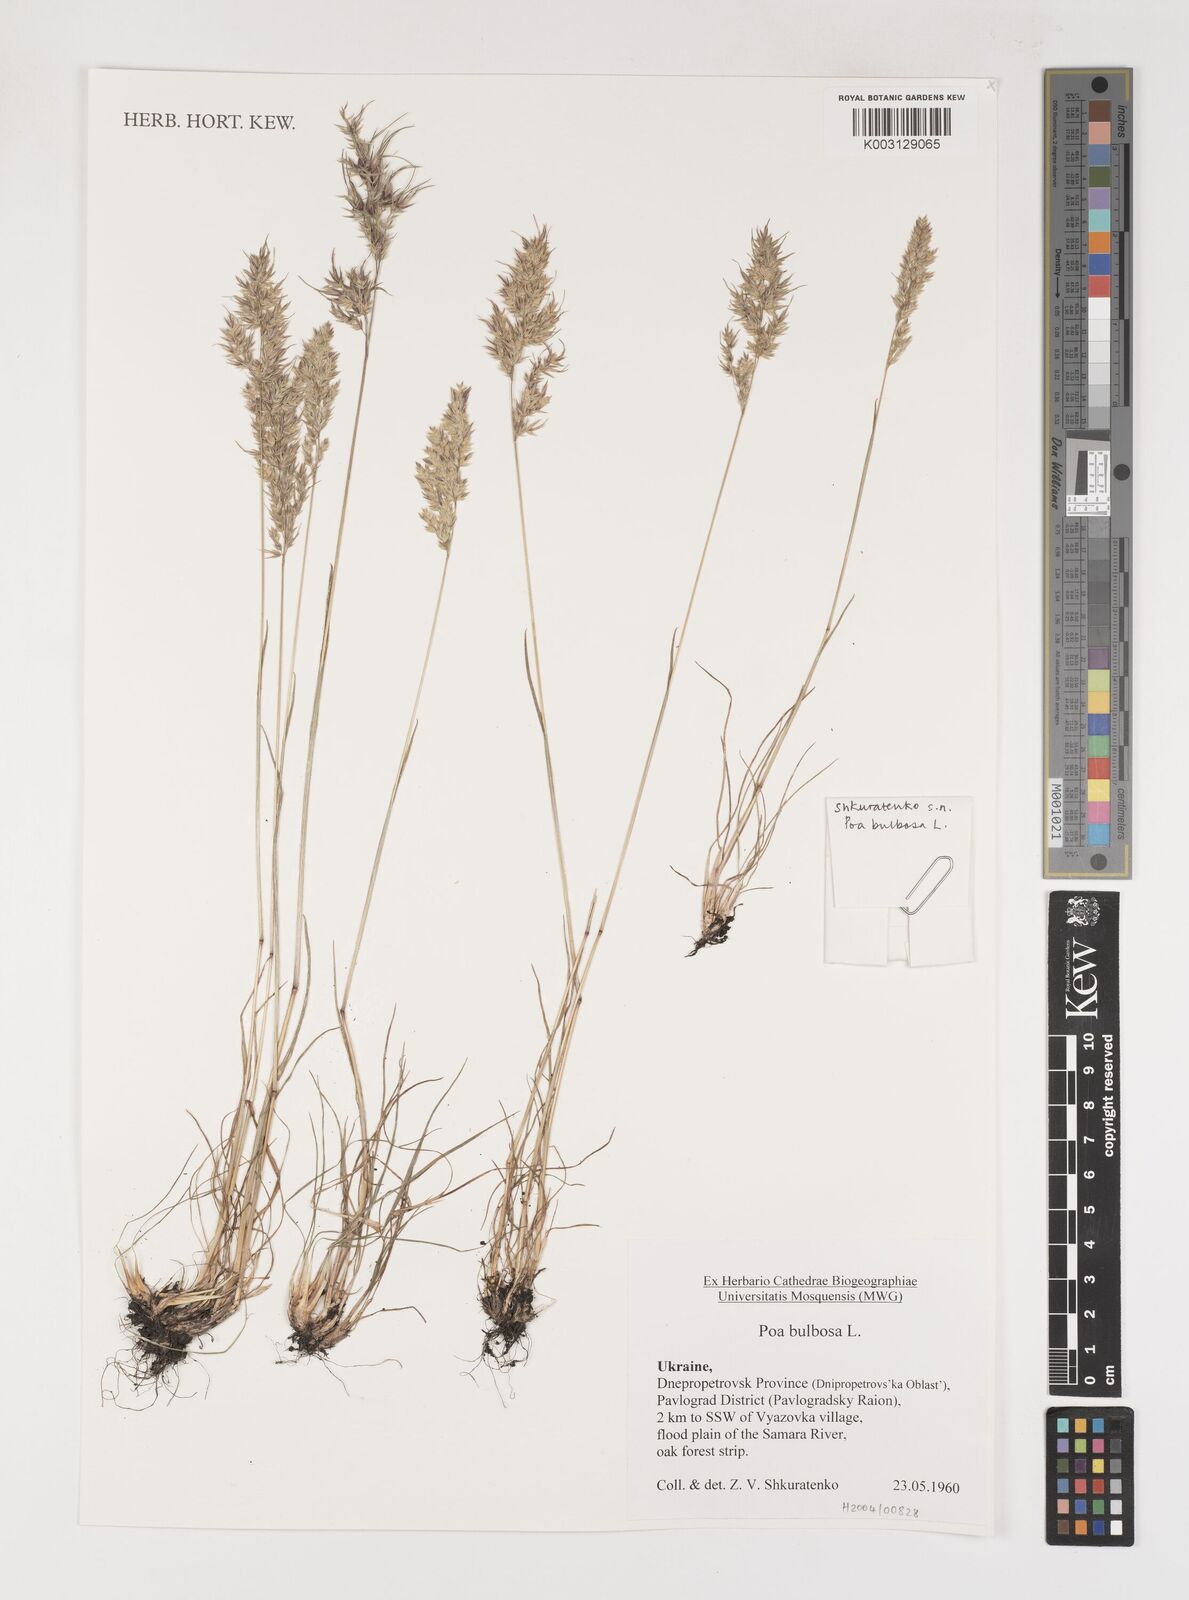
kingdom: Plantae
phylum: Tracheophyta
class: Liliopsida
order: Poales
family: Poaceae
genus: Poa
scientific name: Poa
